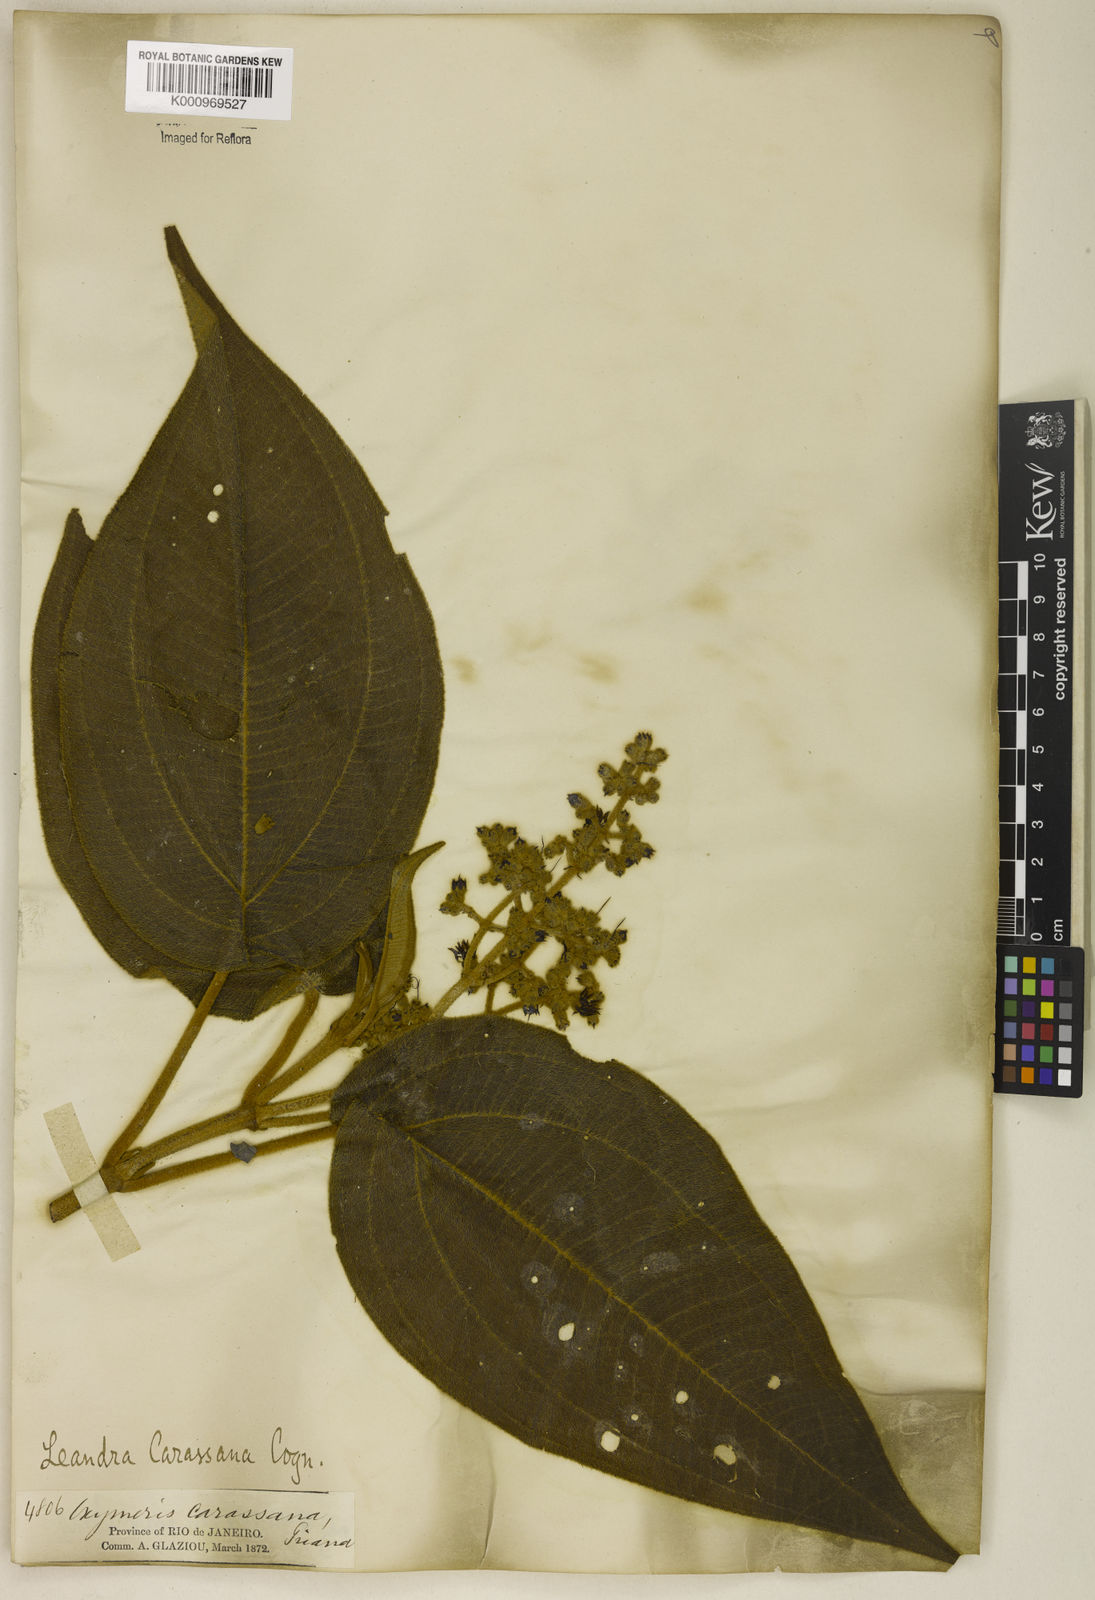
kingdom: Plantae
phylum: Tracheophyta
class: Magnoliopsida
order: Myrtales
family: Melastomataceae
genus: Miconia
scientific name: Miconia sublanata
